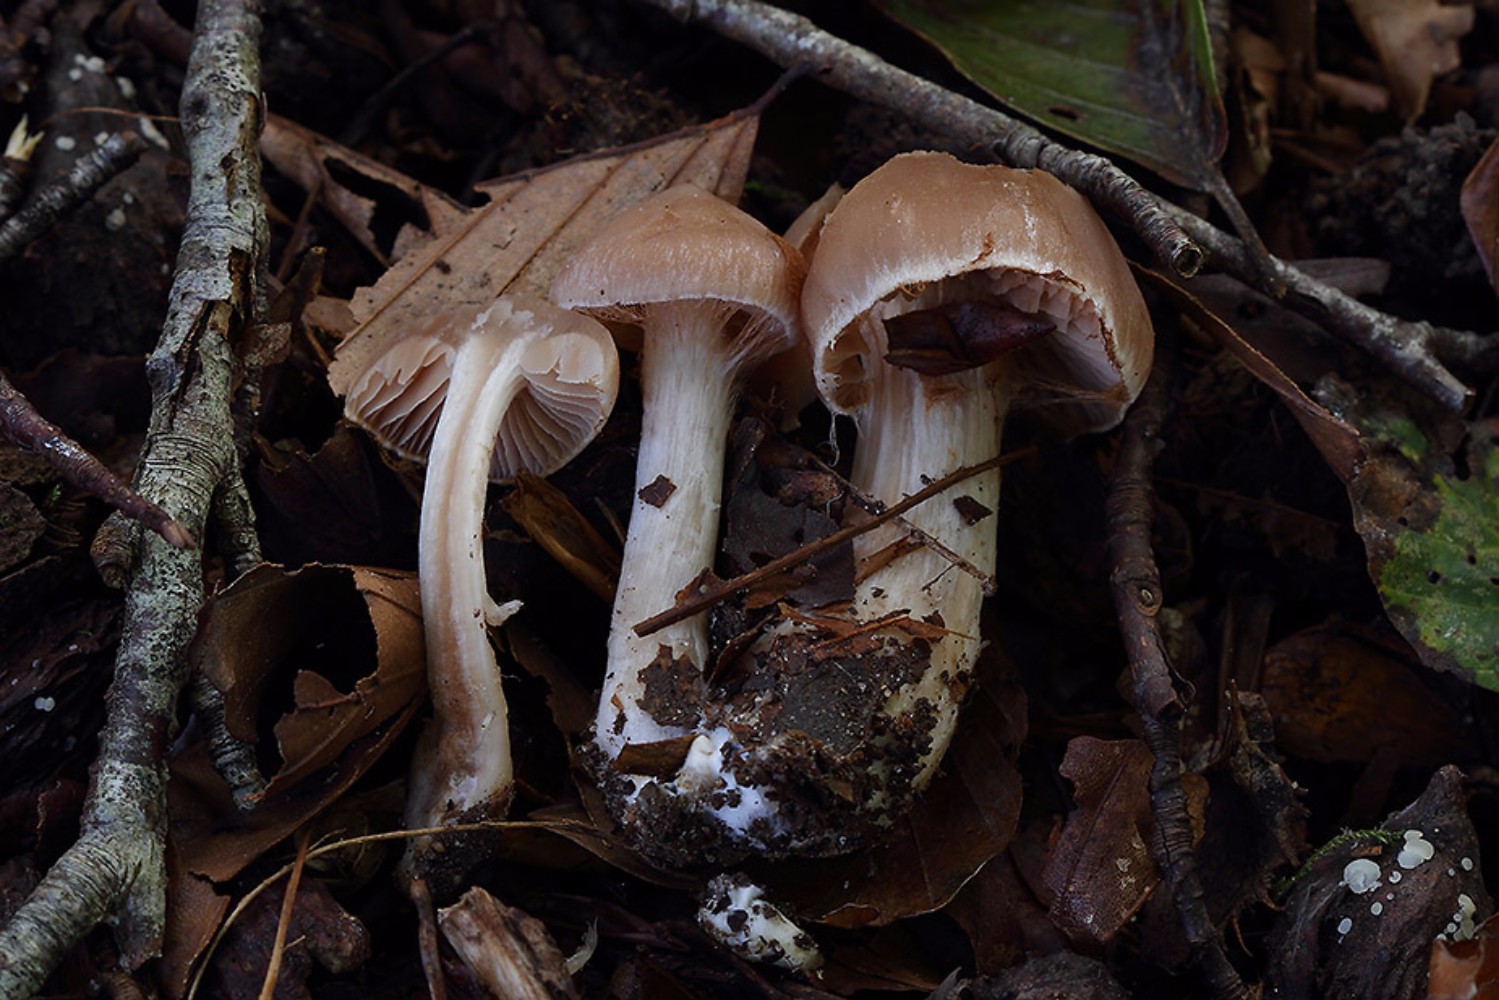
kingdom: Fungi
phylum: Basidiomycota
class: Agaricomycetes
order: Agaricales
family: Cortinariaceae
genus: Cortinarius
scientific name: Cortinarius iners
